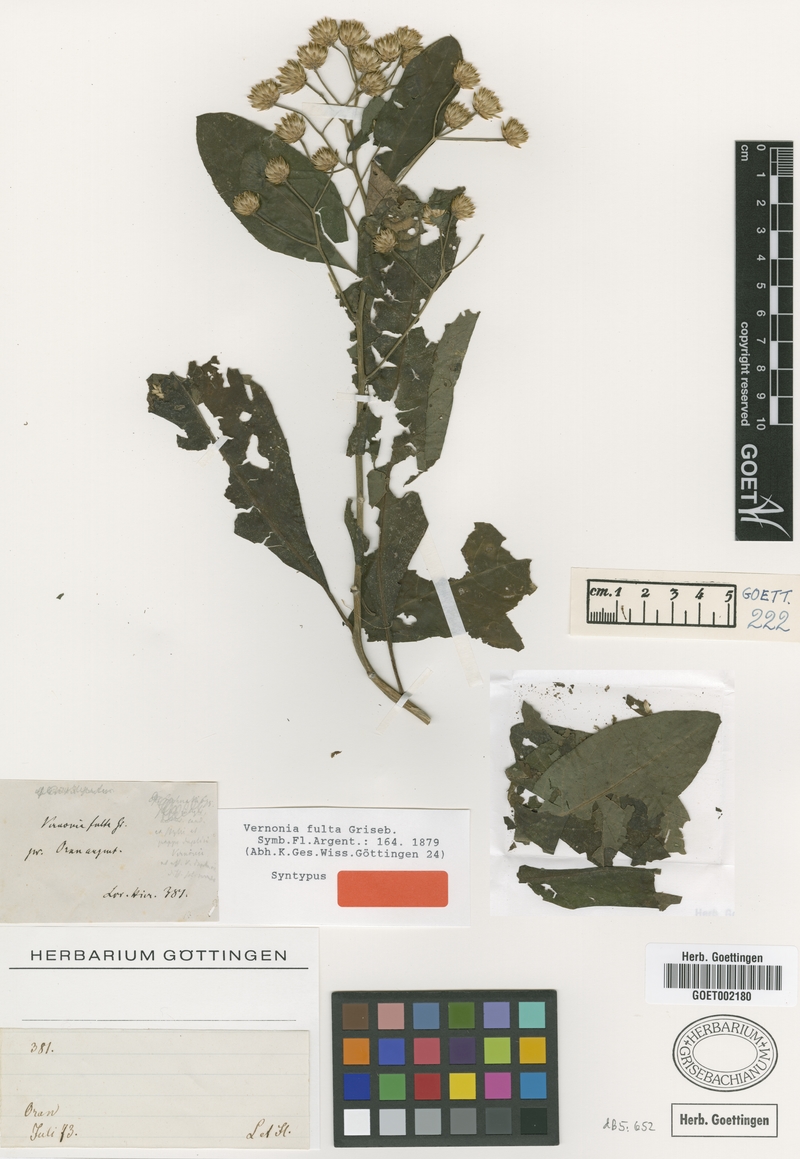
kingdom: Plantae
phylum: Tracheophyta
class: Magnoliopsida
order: Asterales
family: Asteraceae
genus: Quechualia
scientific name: Quechualia fulta
